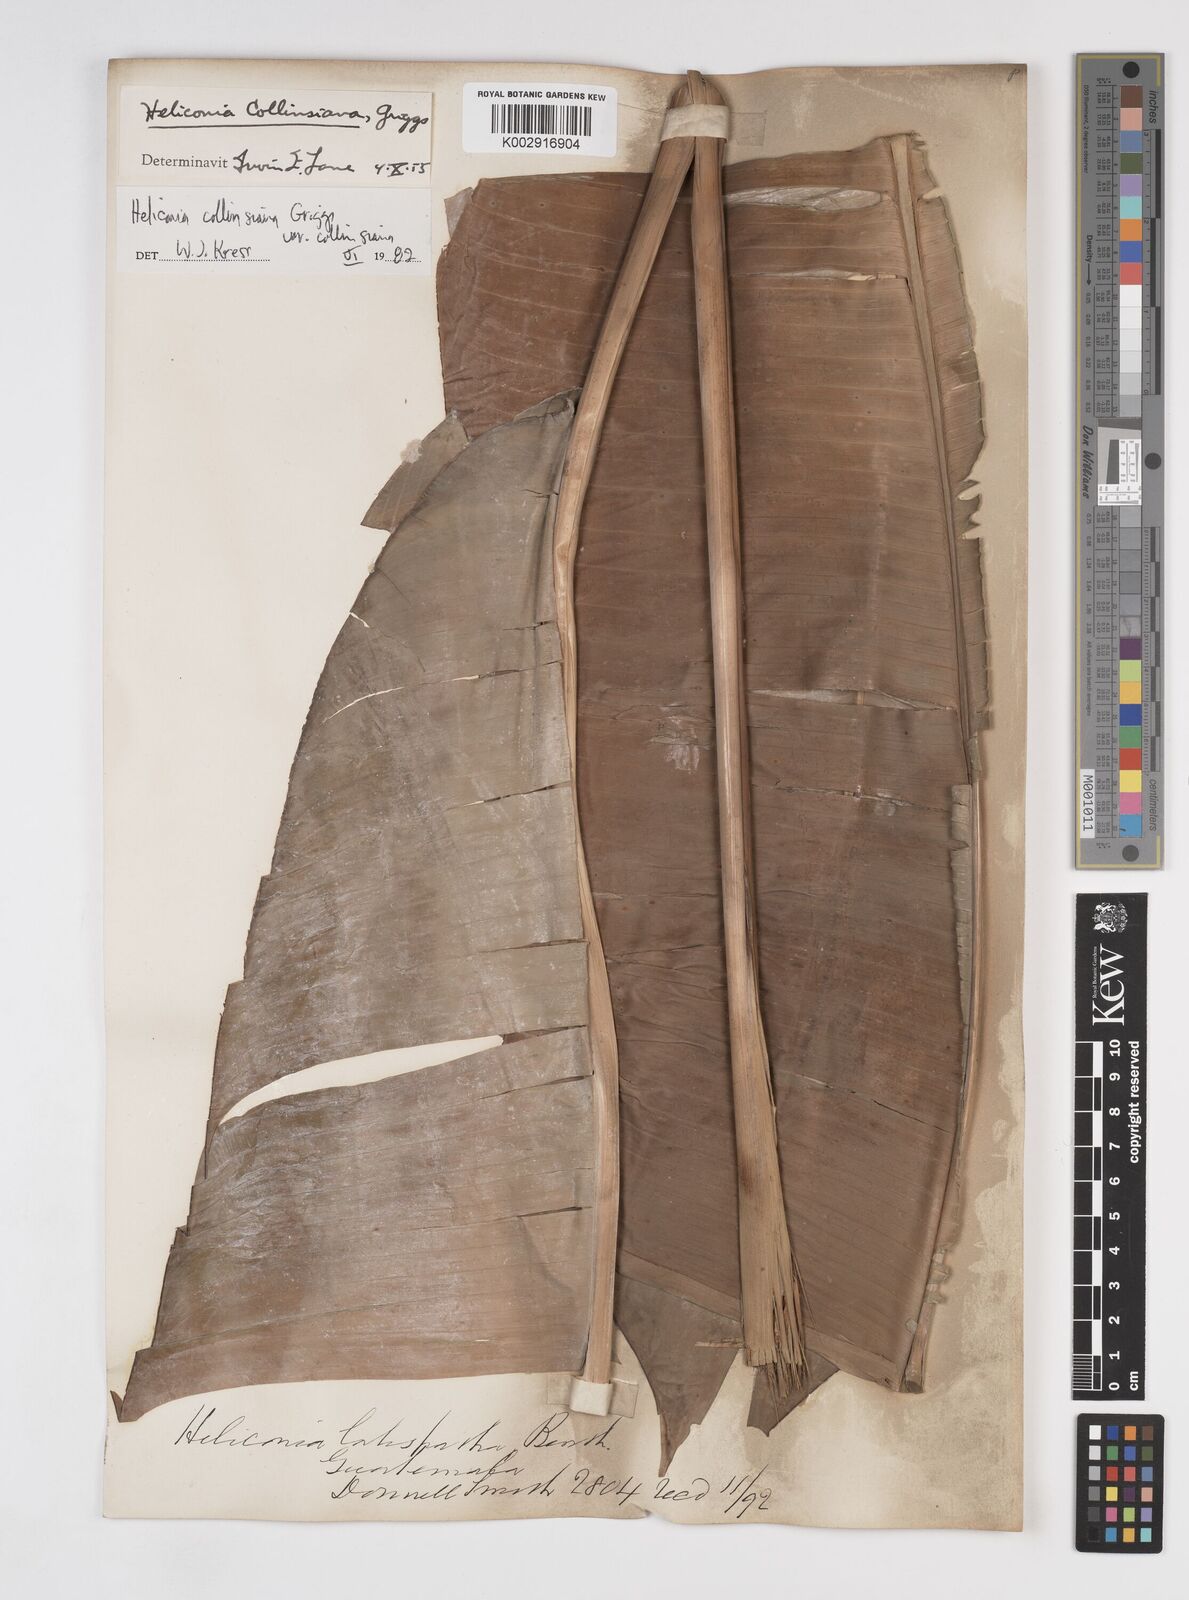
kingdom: Plantae
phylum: Tracheophyta
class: Liliopsida
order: Zingiberales
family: Heliconiaceae
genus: Heliconia
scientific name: Heliconia collinsiana
